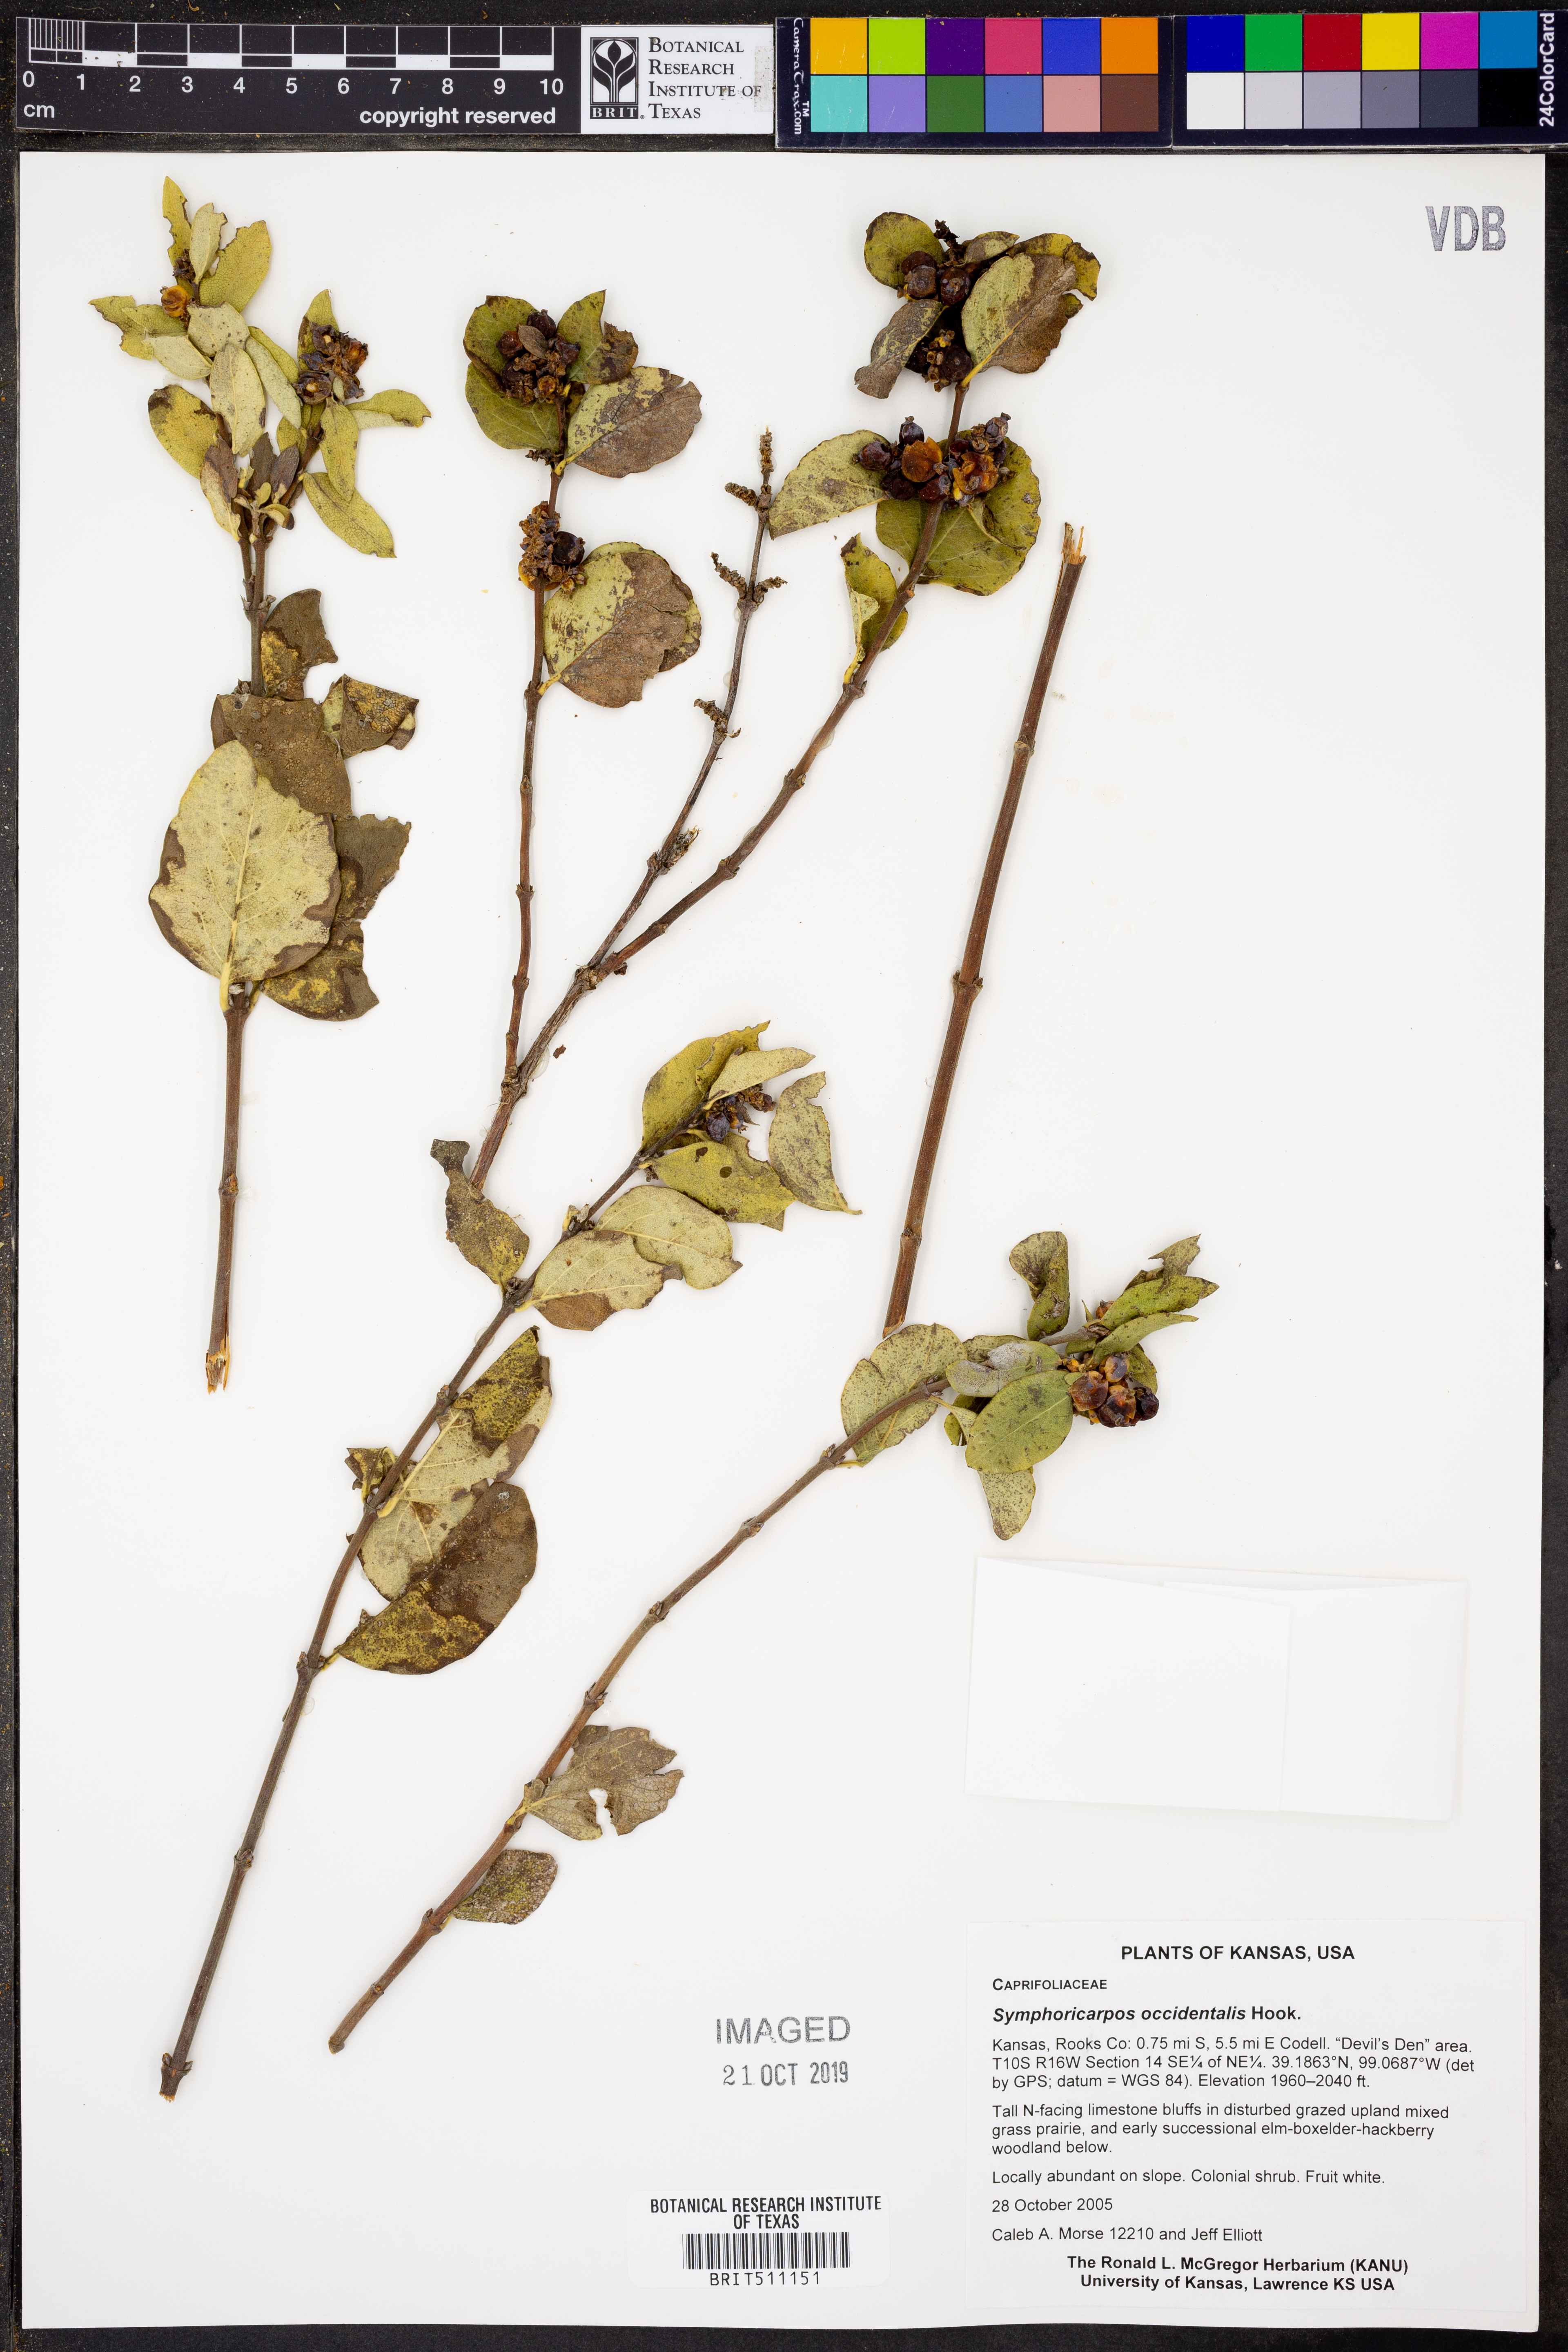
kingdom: Plantae
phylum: Tracheophyta
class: Magnoliopsida
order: Dipsacales
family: Caprifoliaceae
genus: Symphoricarpos
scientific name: Symphoricarpos occidentalis
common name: Wolfberry
